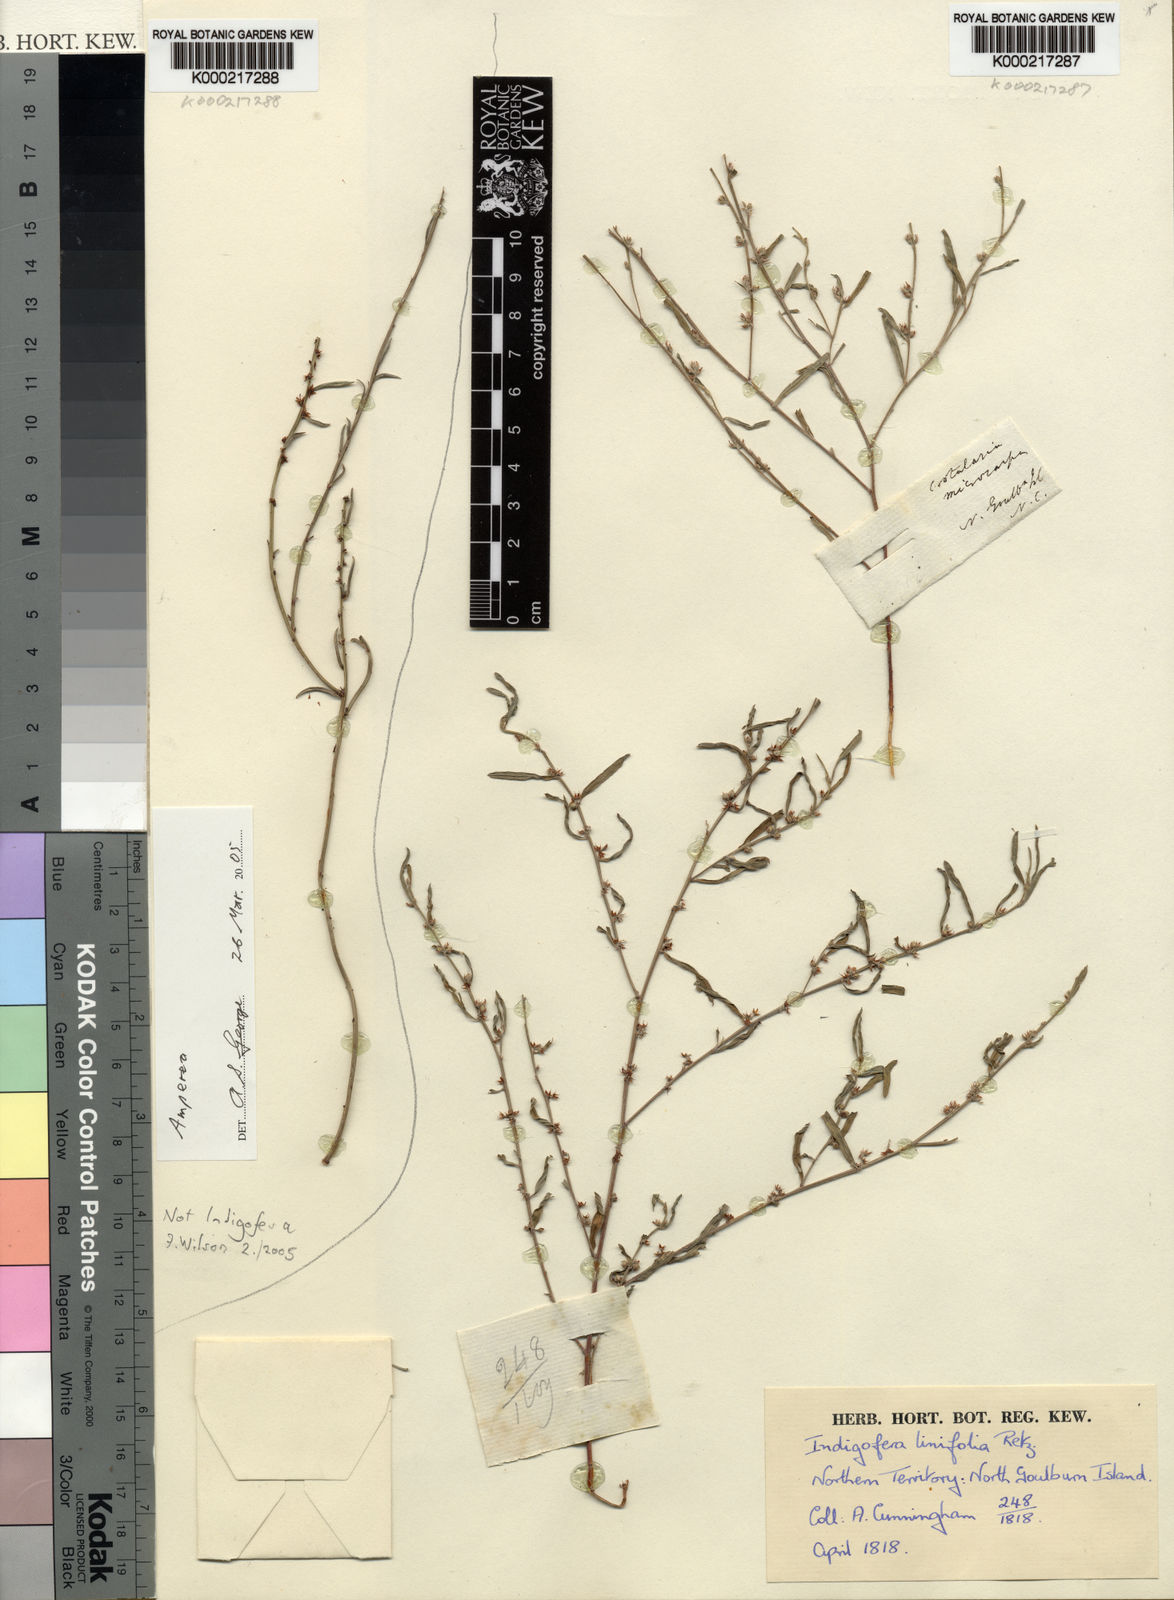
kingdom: Plantae
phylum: Tracheophyta
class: Magnoliopsida
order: Fabales
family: Fabaceae
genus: Indigofera
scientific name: Indigofera linifolia
